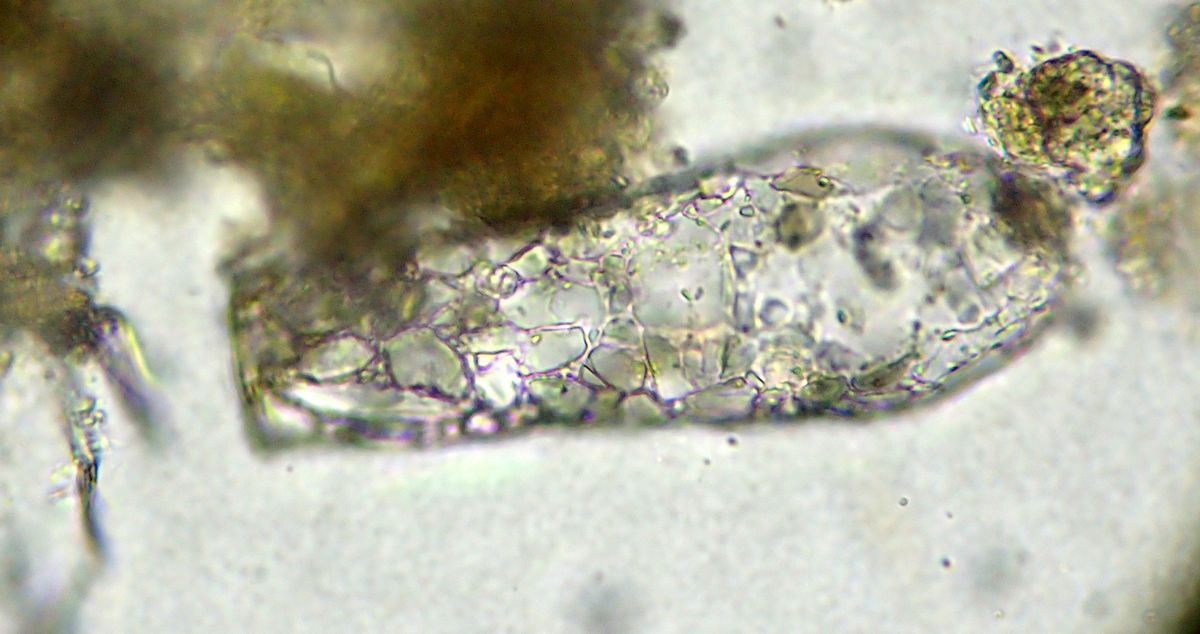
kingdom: Protozoa
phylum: Amoebozoa
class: Lobosa
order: Arcellinida
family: Difflugiidae
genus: Difflugia
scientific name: Difflugia oblonga
